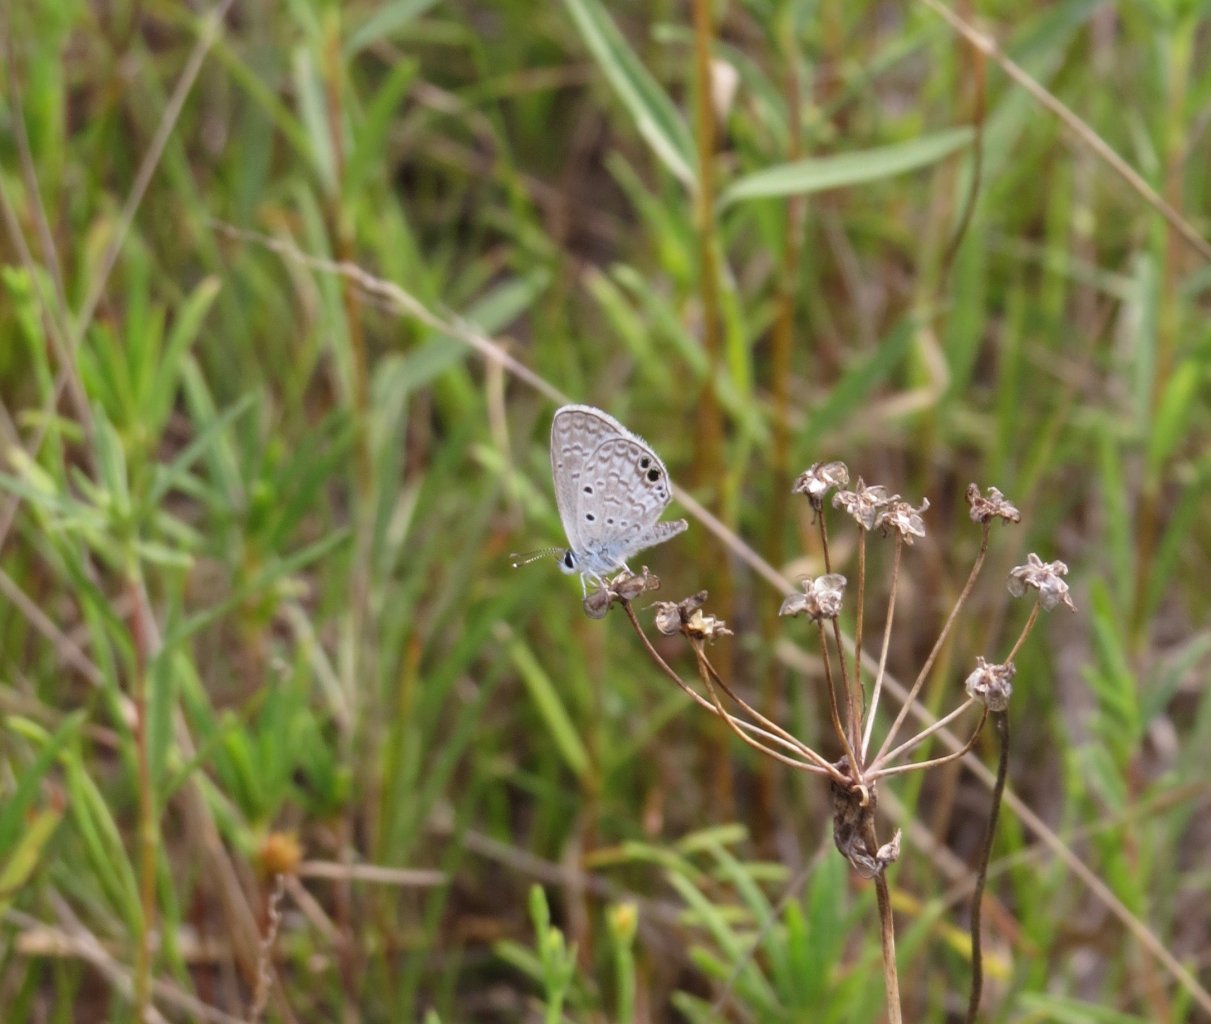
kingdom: Animalia
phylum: Arthropoda
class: Insecta
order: Lepidoptera
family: Lycaenidae
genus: Hemiargus
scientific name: Hemiargus ceraunus
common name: Ceraunus Blue
